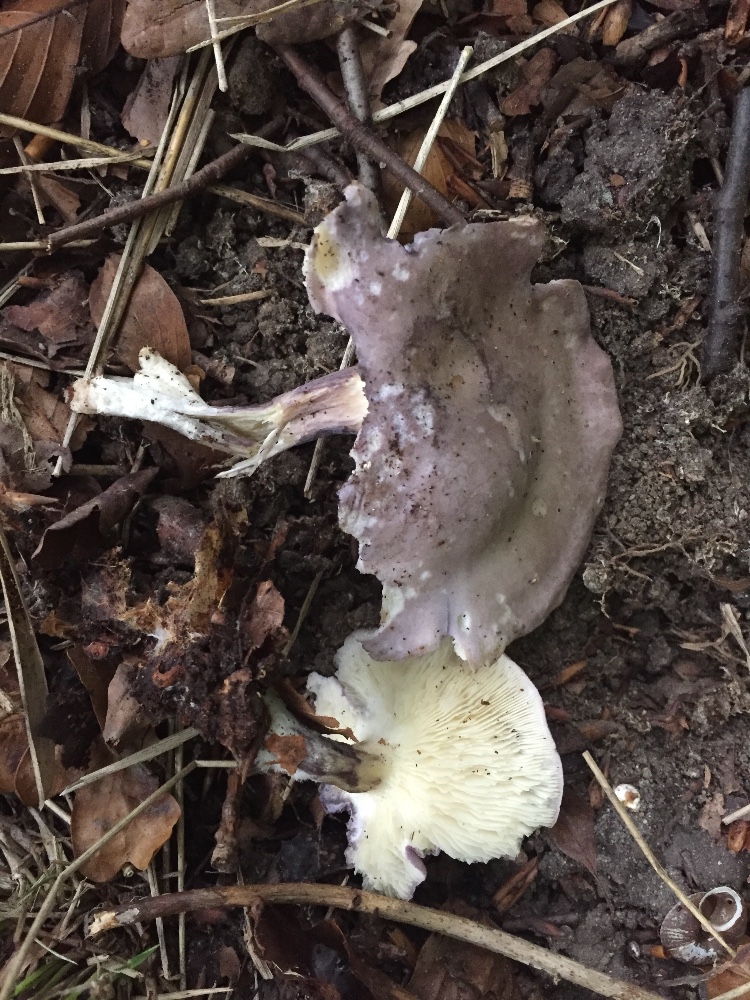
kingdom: Fungi
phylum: Basidiomycota
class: Agaricomycetes
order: Agaricales
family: Lyophyllaceae
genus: Calocybe
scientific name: Calocybe ionides
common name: violblå fagerhat
